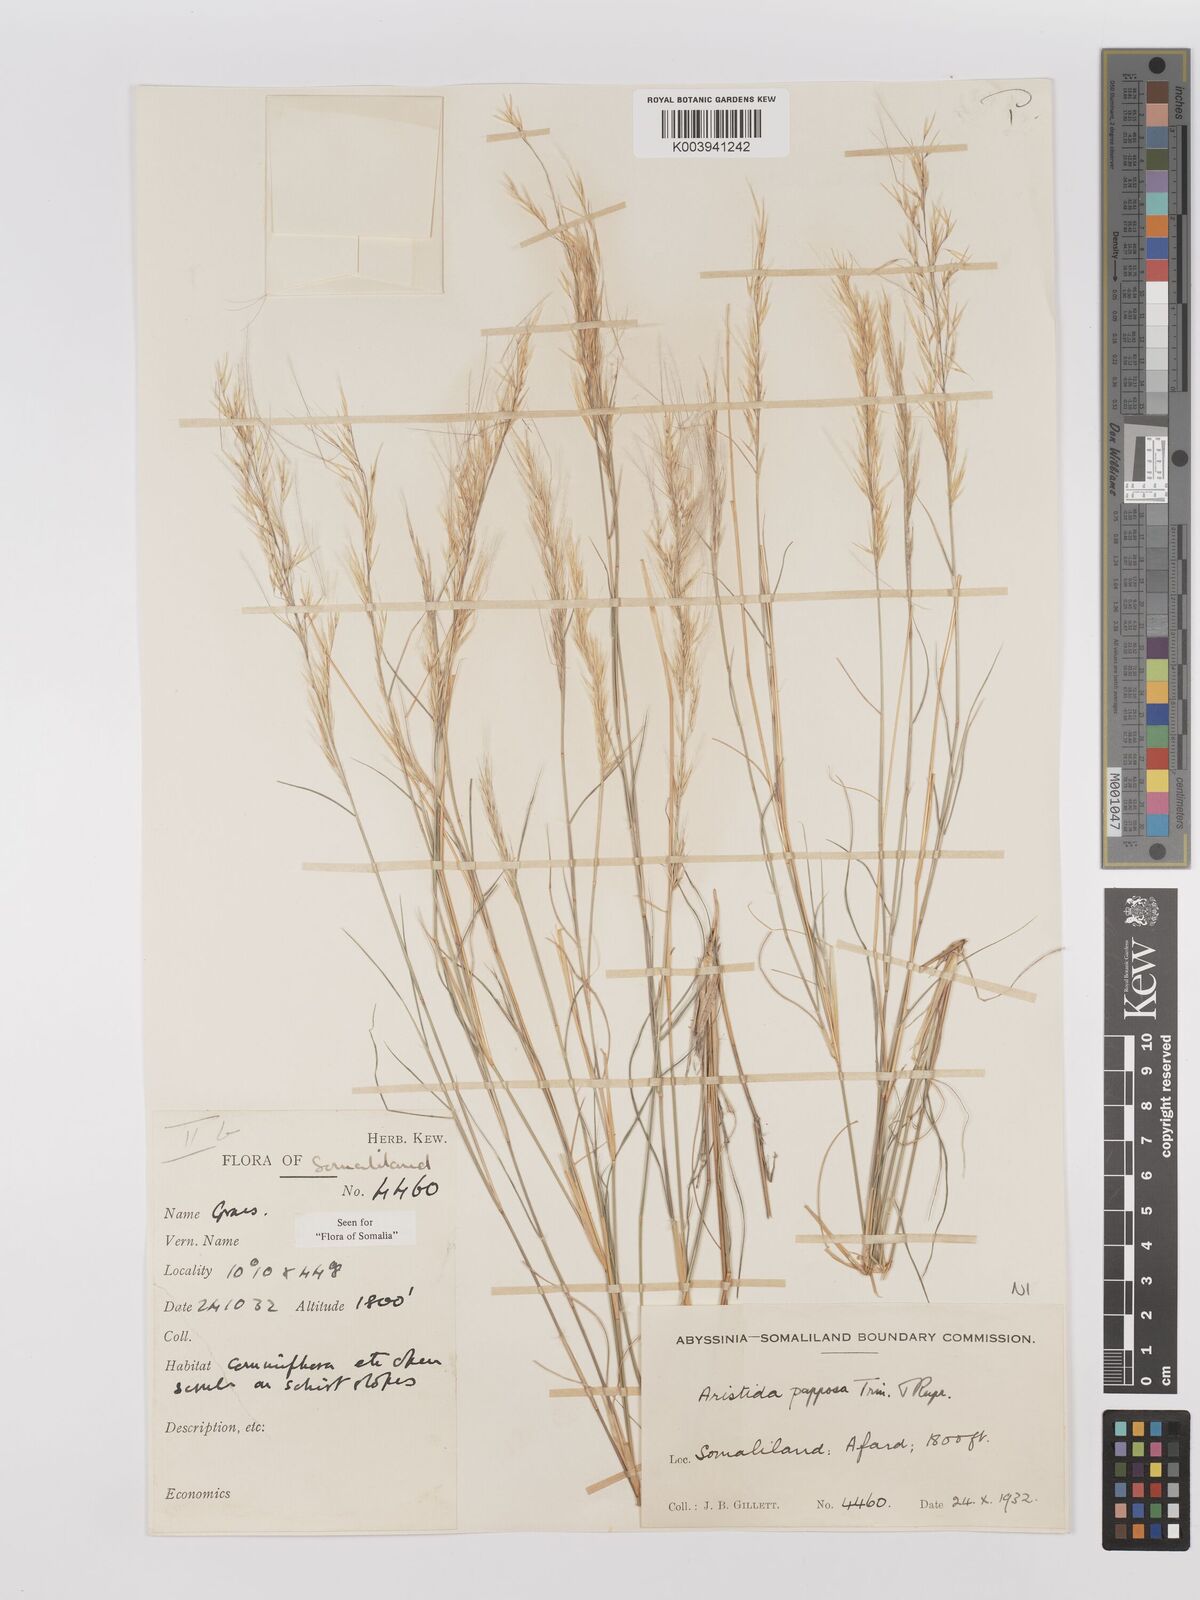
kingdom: Plantae
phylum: Tracheophyta
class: Liliopsida
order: Poales
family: Poaceae
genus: Stipagrostis
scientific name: Stipagrostis uniplumis
